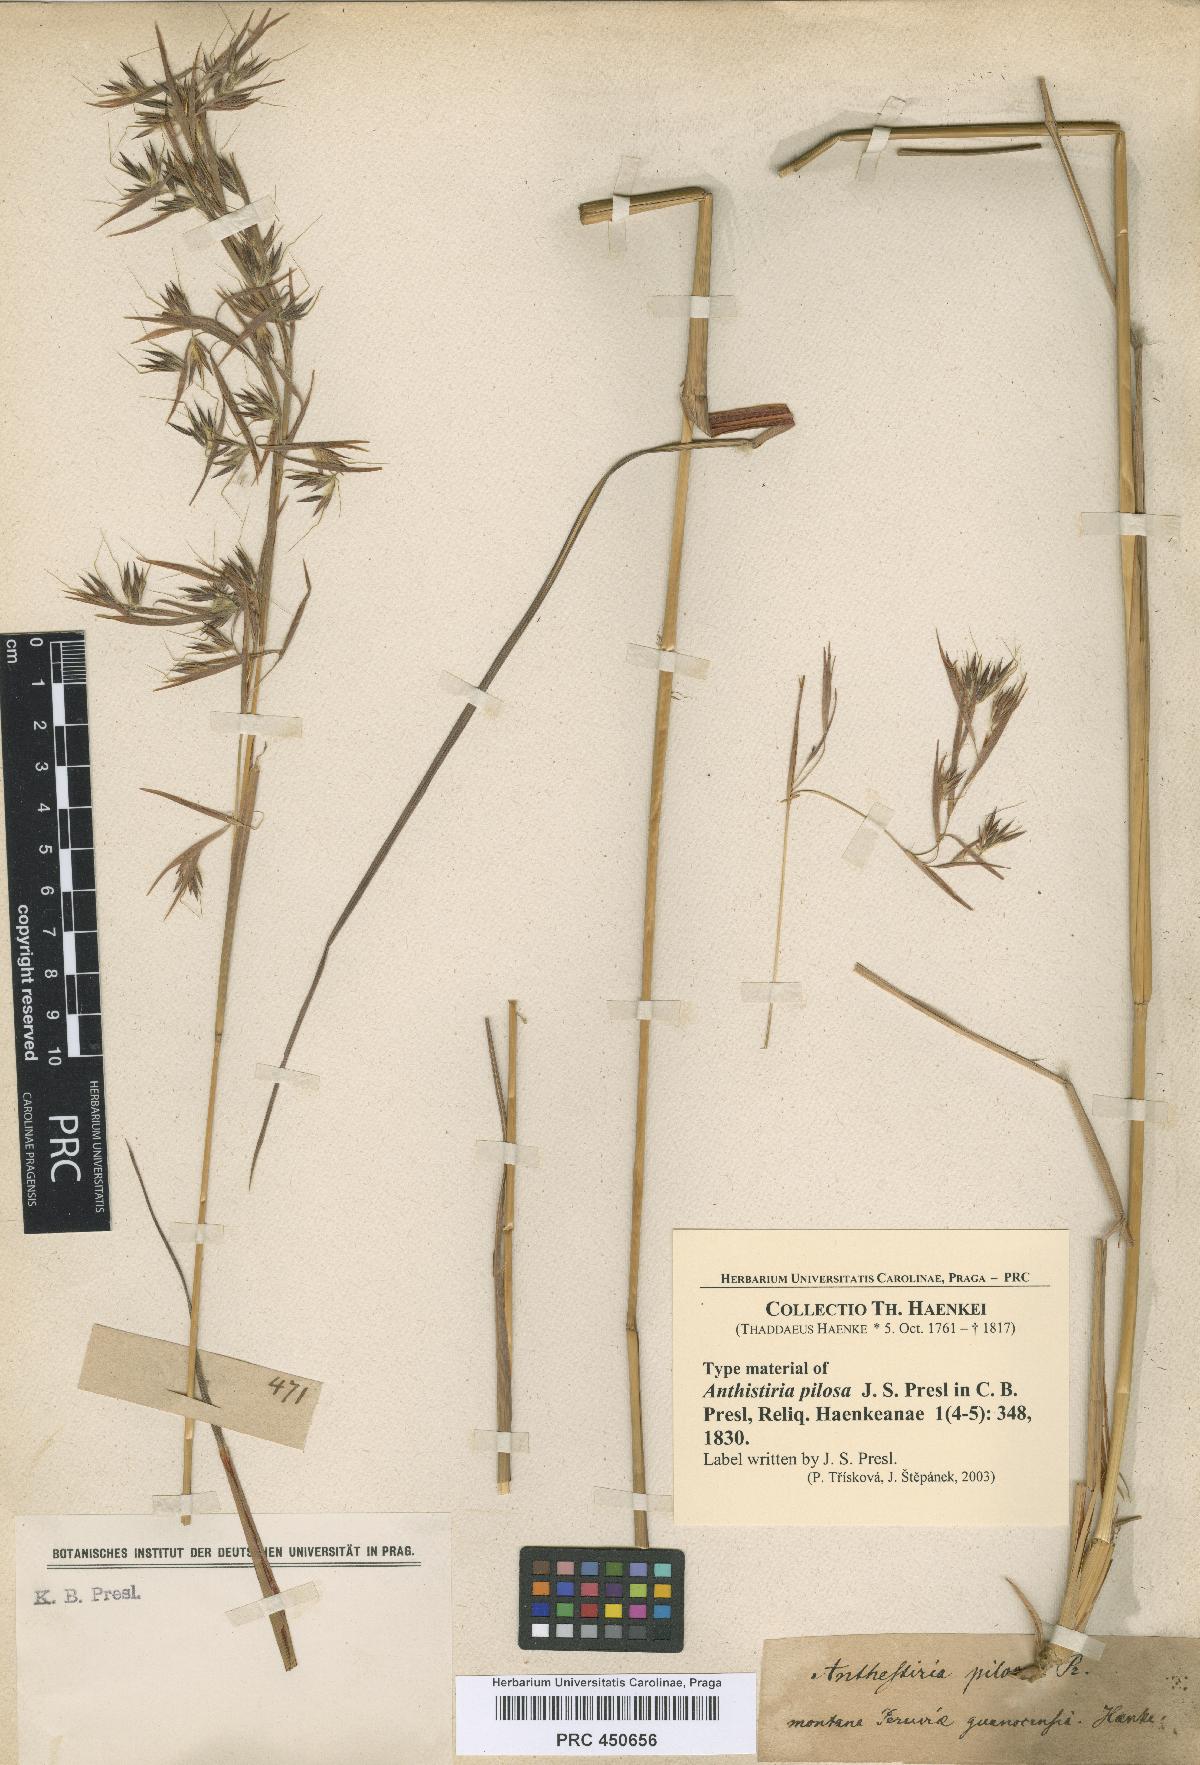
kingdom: Plantae
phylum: Tracheophyta
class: Liliopsida
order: Poales
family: Poaceae
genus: Hyparrhenia
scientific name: Hyparrhenia bracteata
